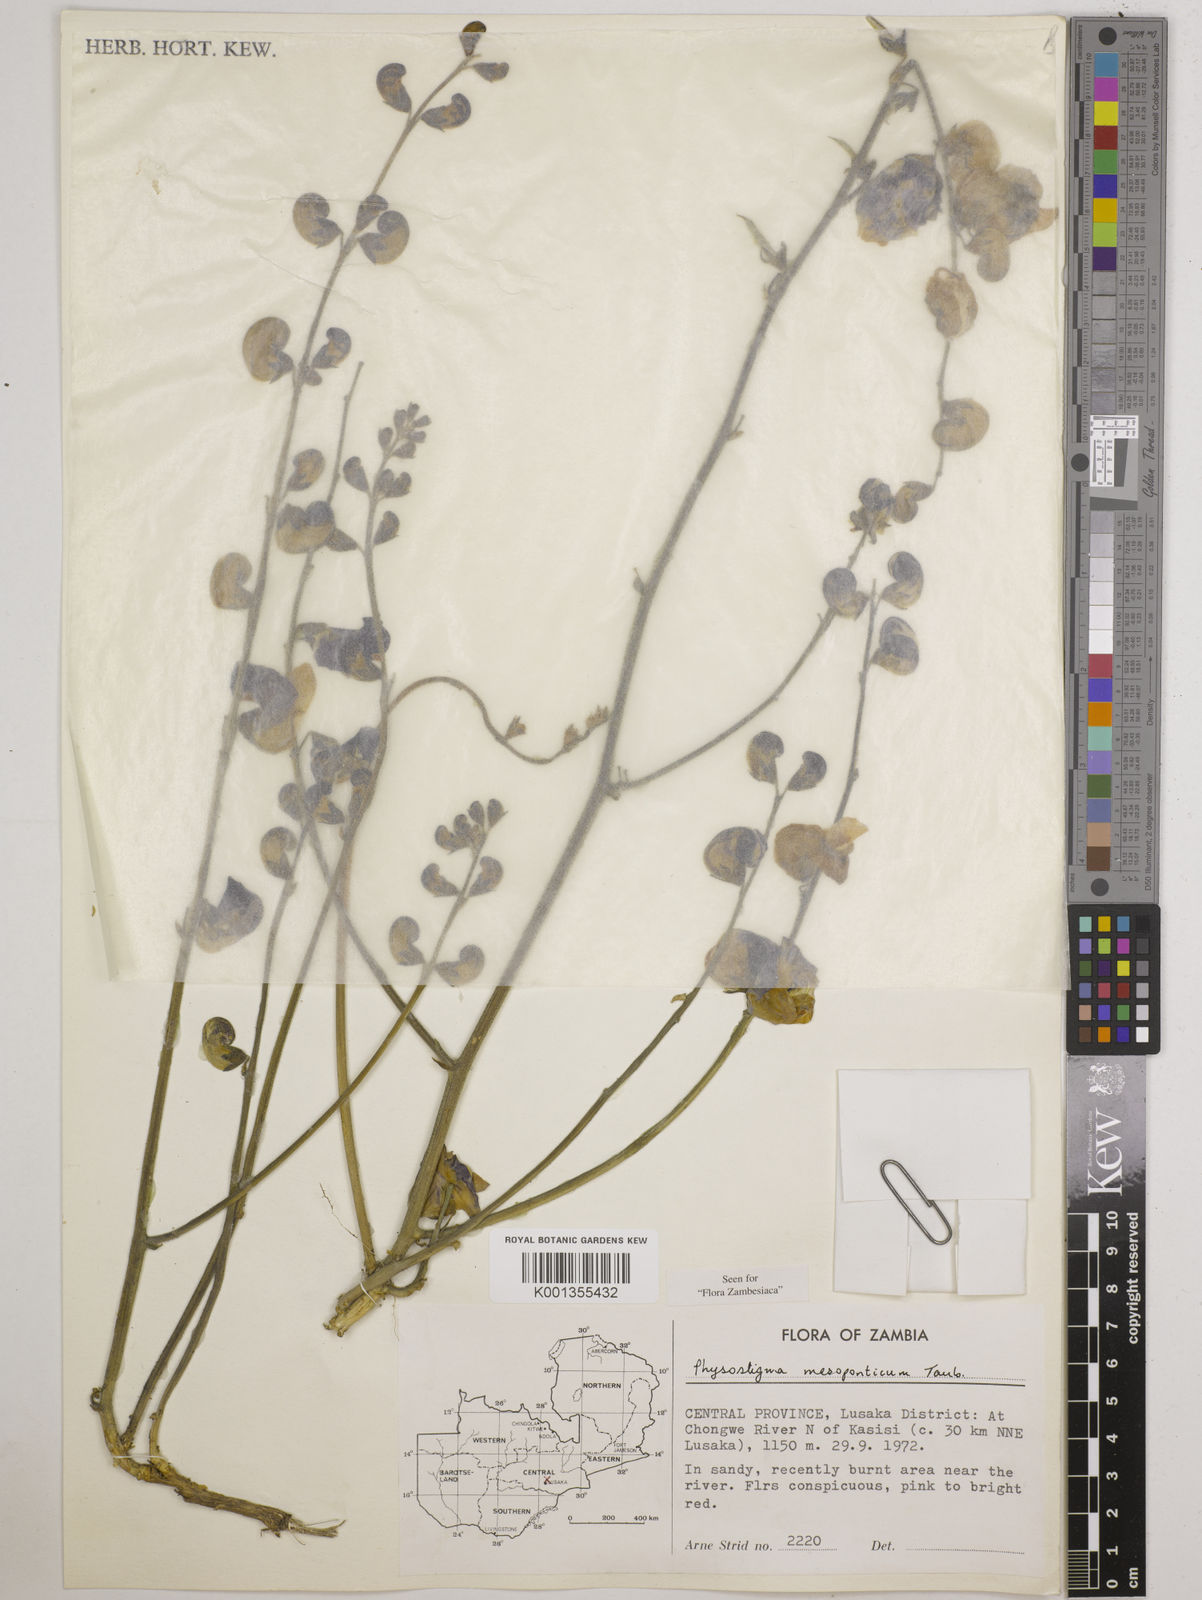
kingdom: Plantae
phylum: Tracheophyta
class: Magnoliopsida
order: Fabales
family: Fabaceae
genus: Physostigma
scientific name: Physostigma mesoponticum
